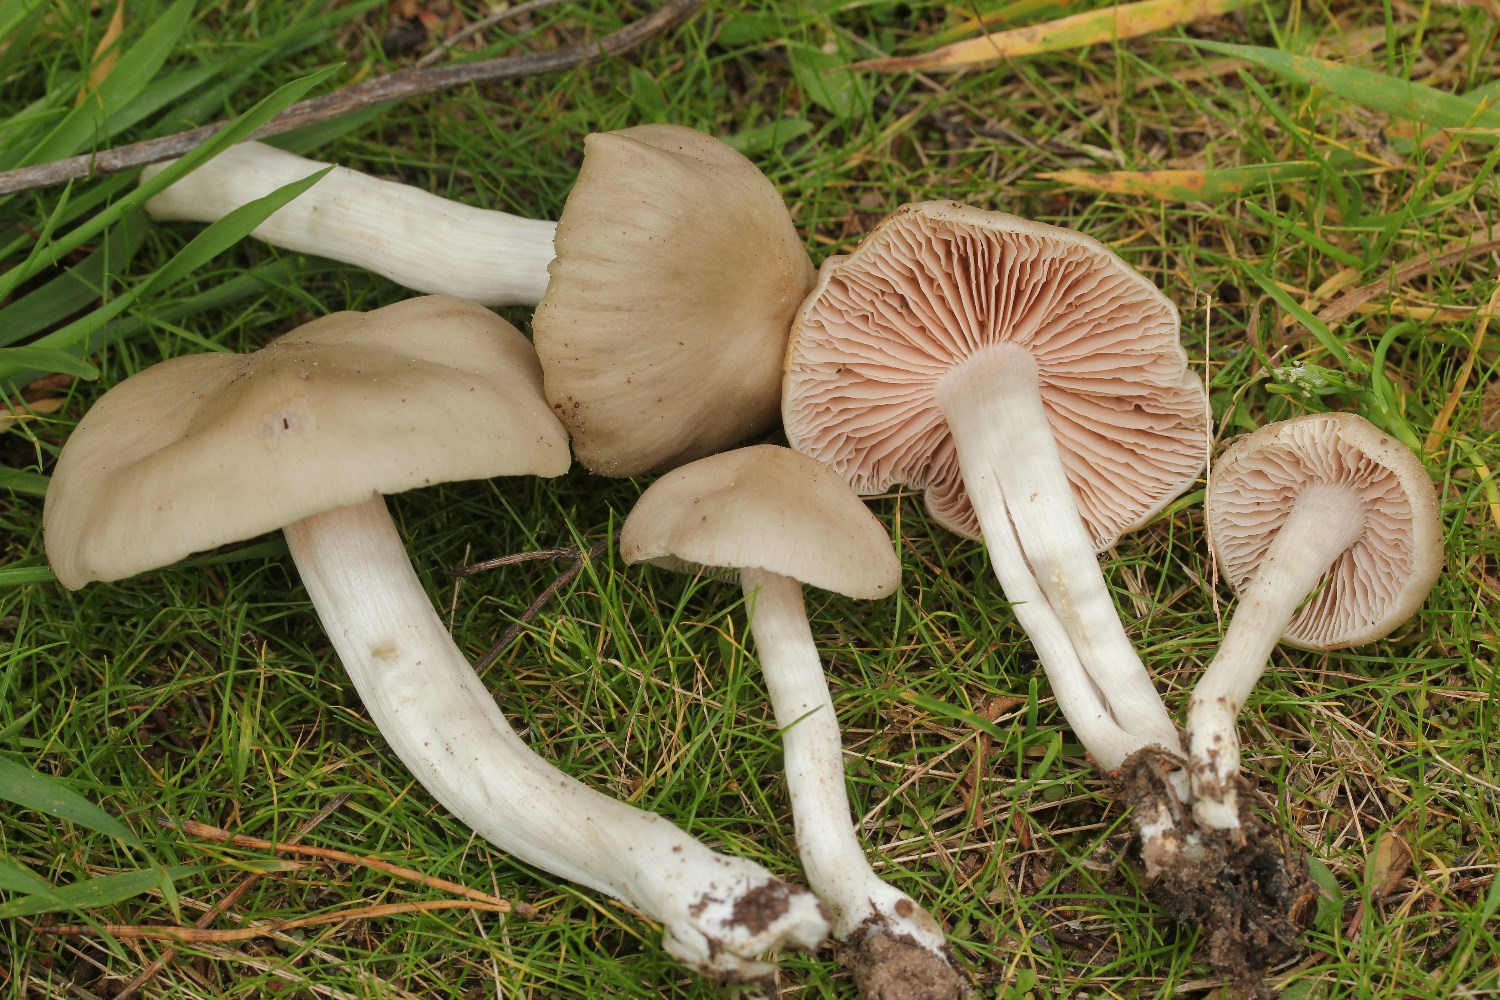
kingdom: Fungi
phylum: Basidiomycota
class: Agaricomycetes
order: Agaricales
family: Entolomataceae
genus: Entoloma
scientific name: Entoloma
